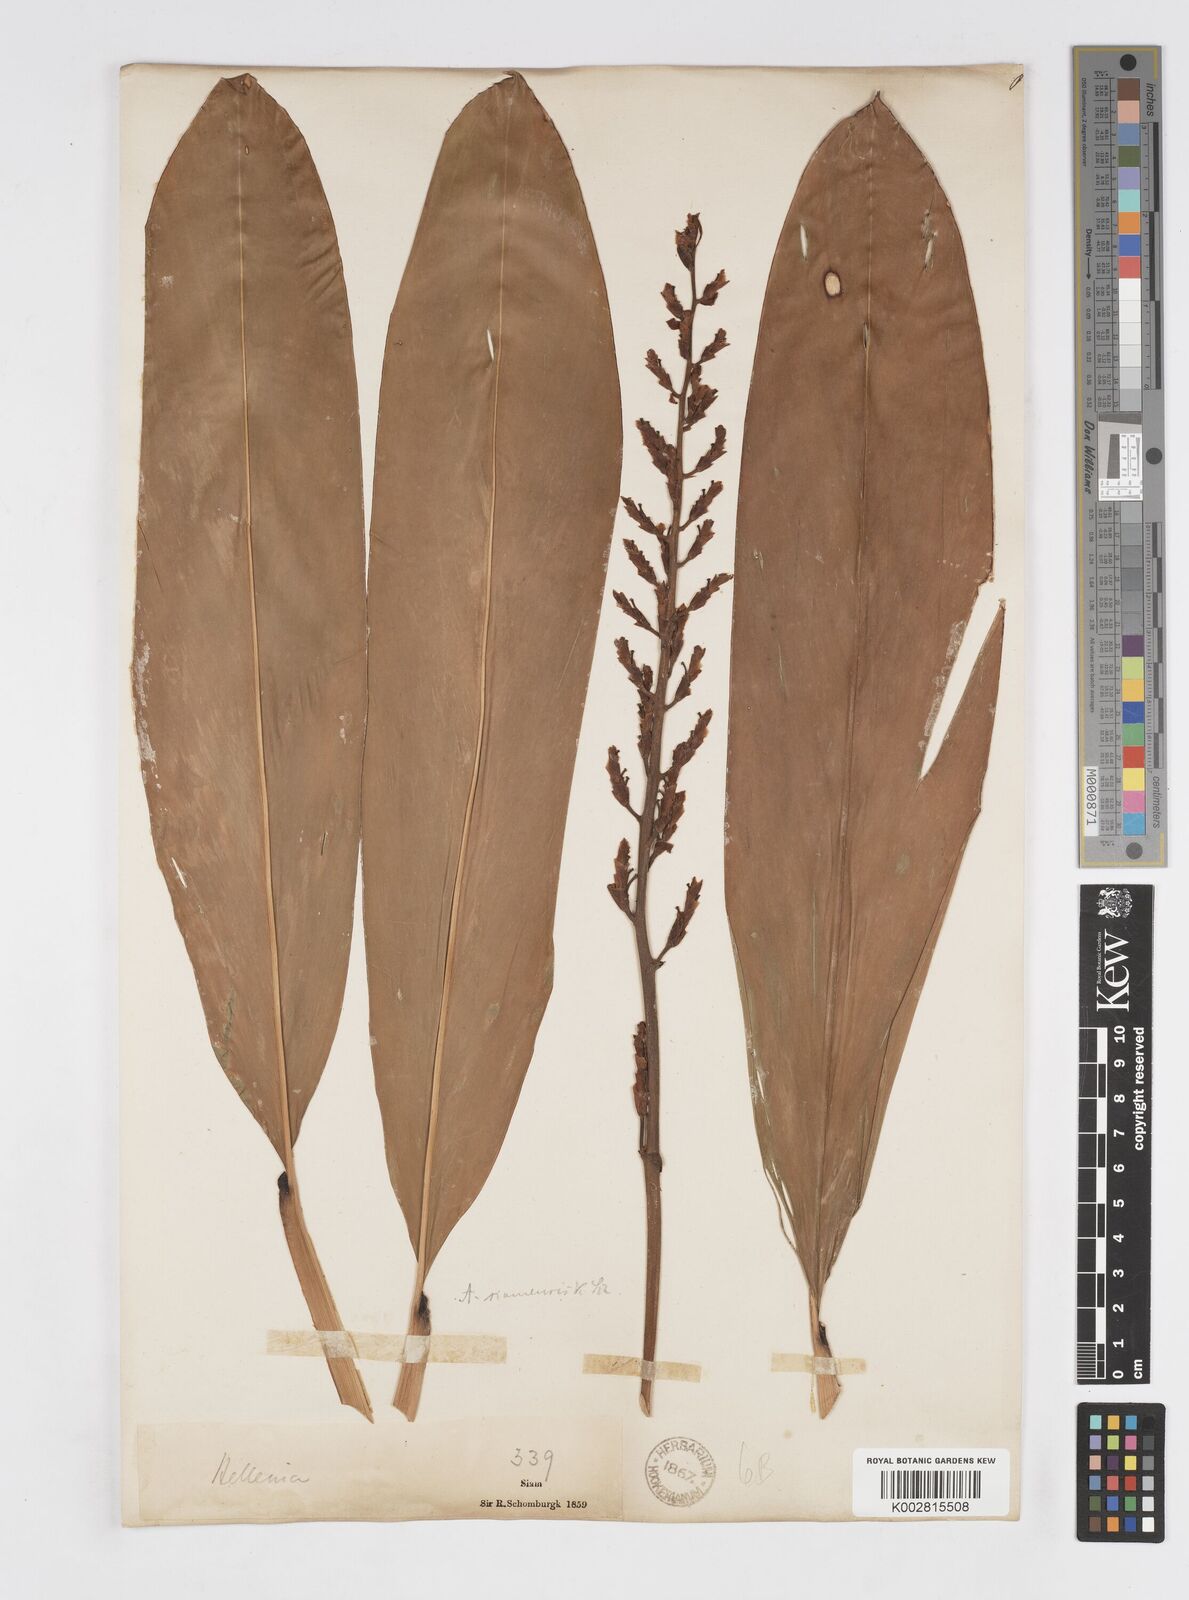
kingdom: Plantae
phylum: Tracheophyta
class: Liliopsida
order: Zingiberales
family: Zingiberaceae
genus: Alpinia
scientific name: Alpinia siamensis
